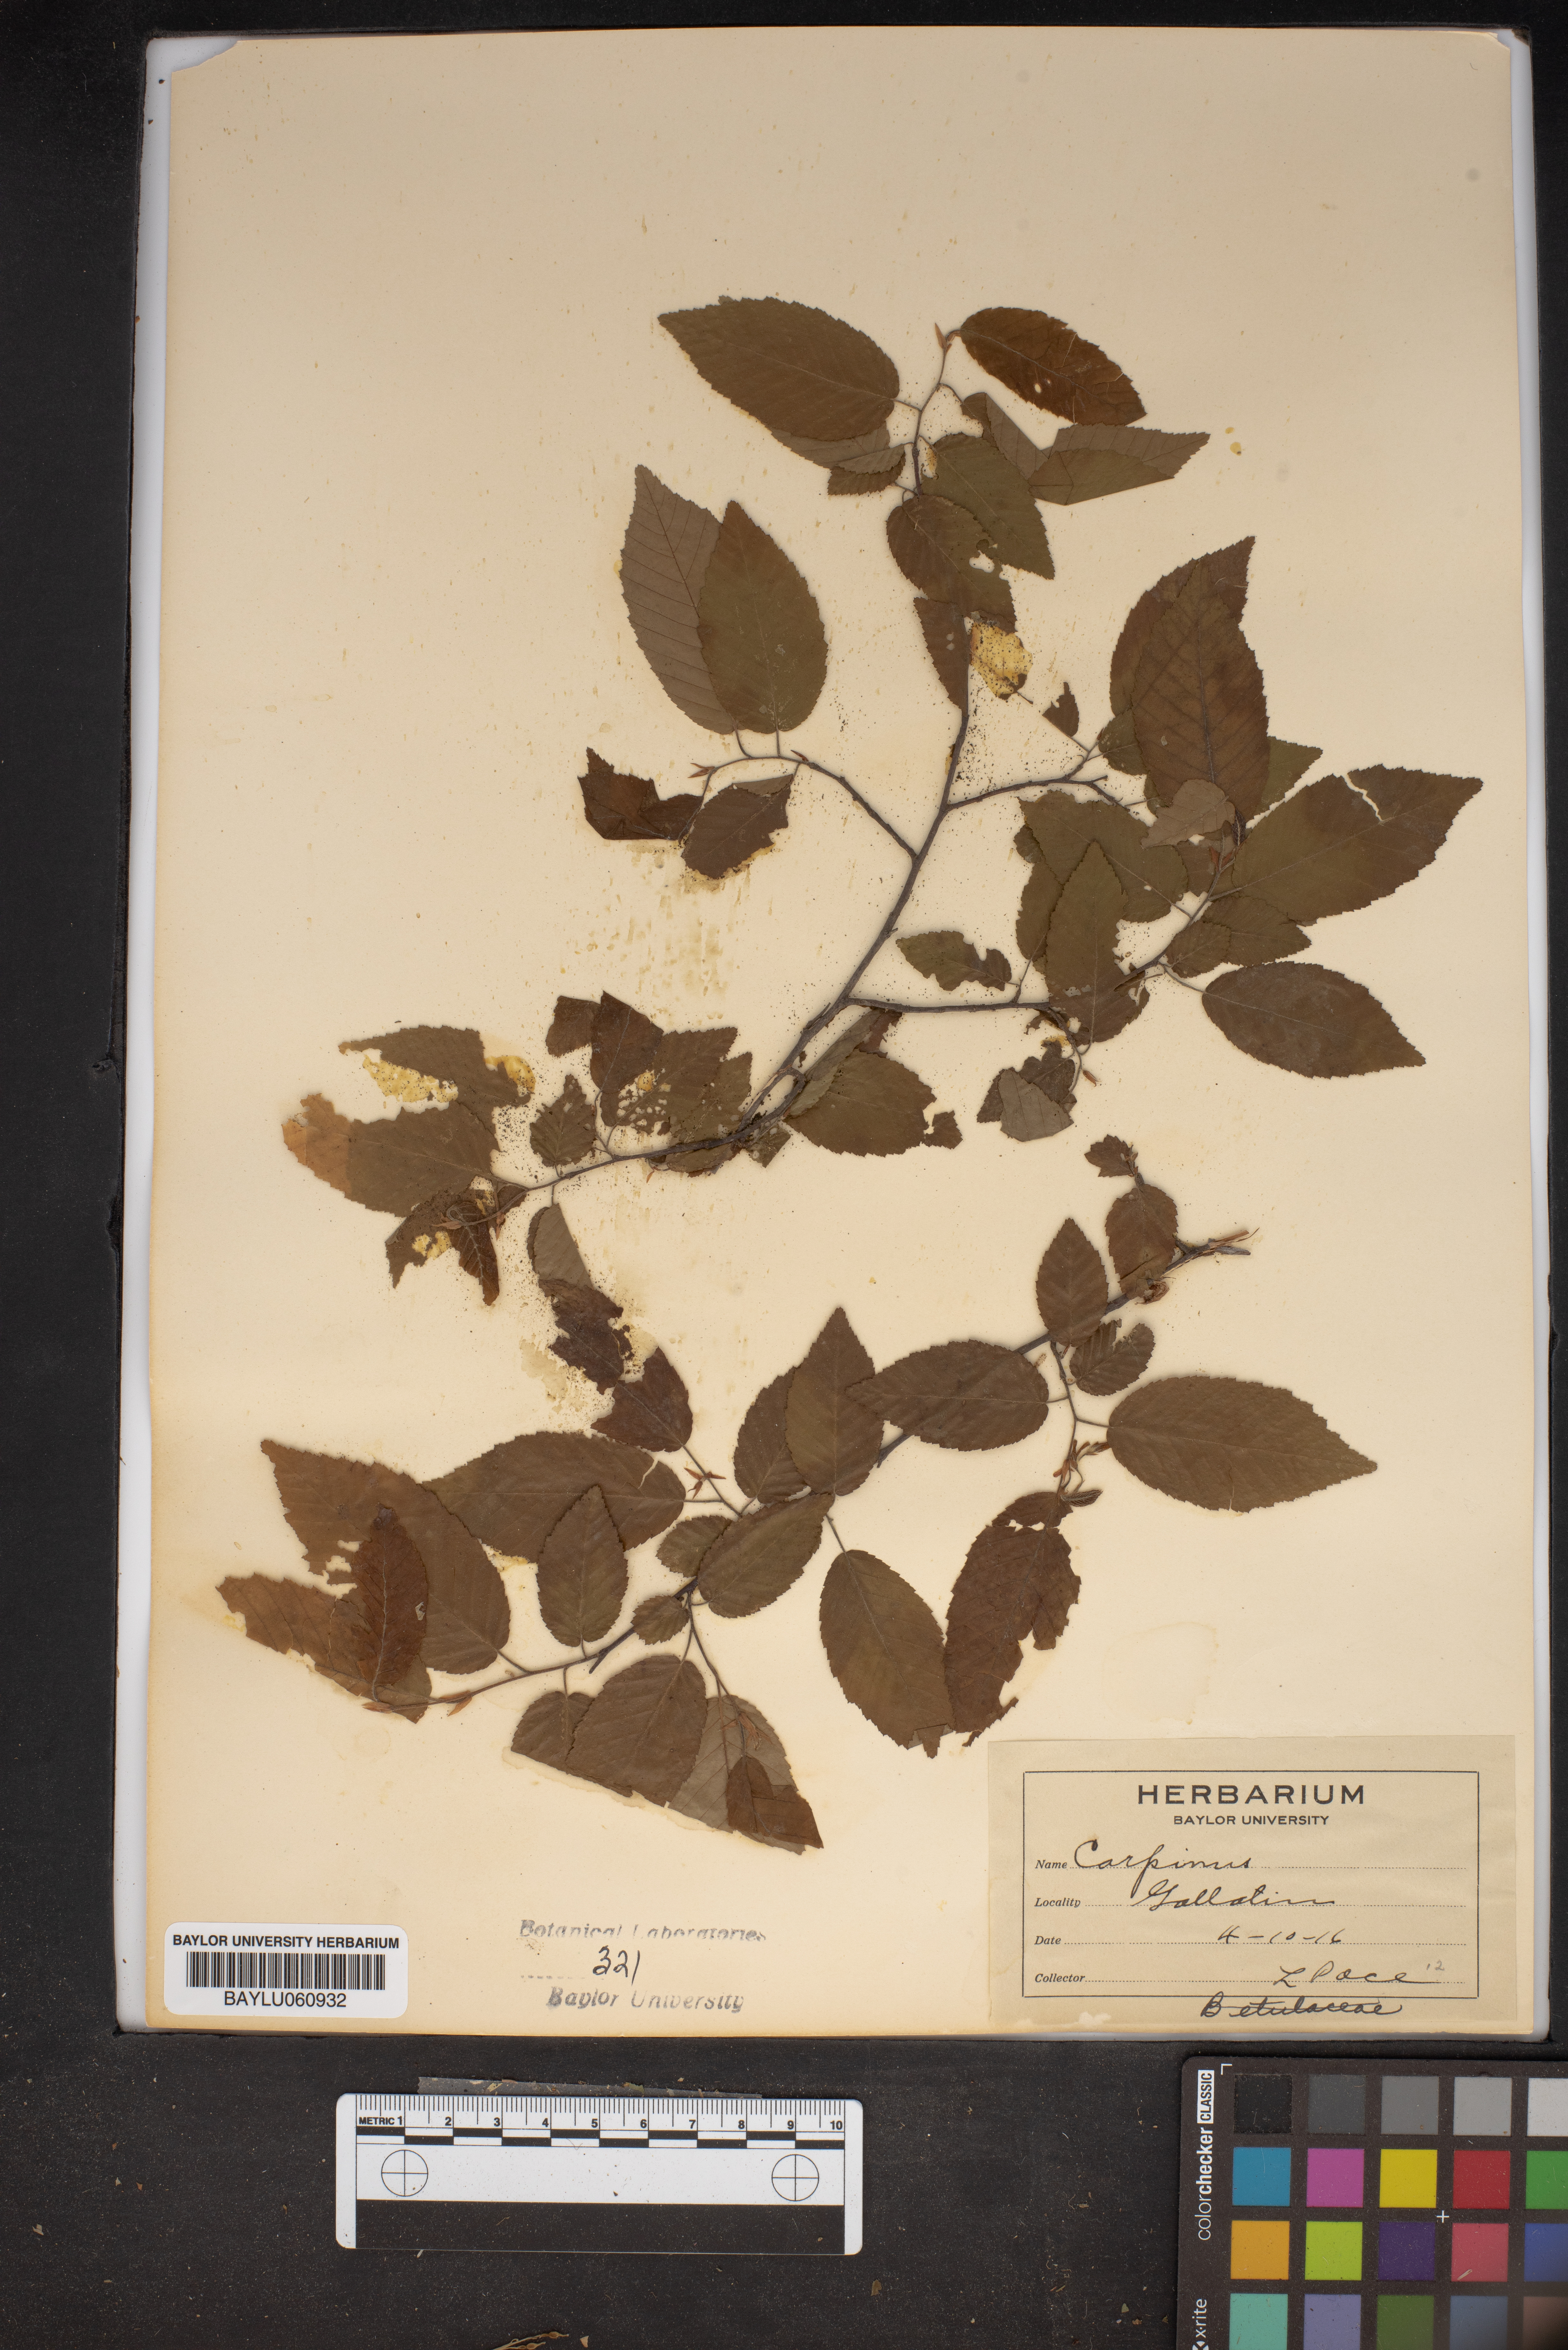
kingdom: Plantae
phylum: Tracheophyta
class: Magnoliopsida
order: Fagales
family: Betulaceae
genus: Carpinus
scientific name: Carpinus
